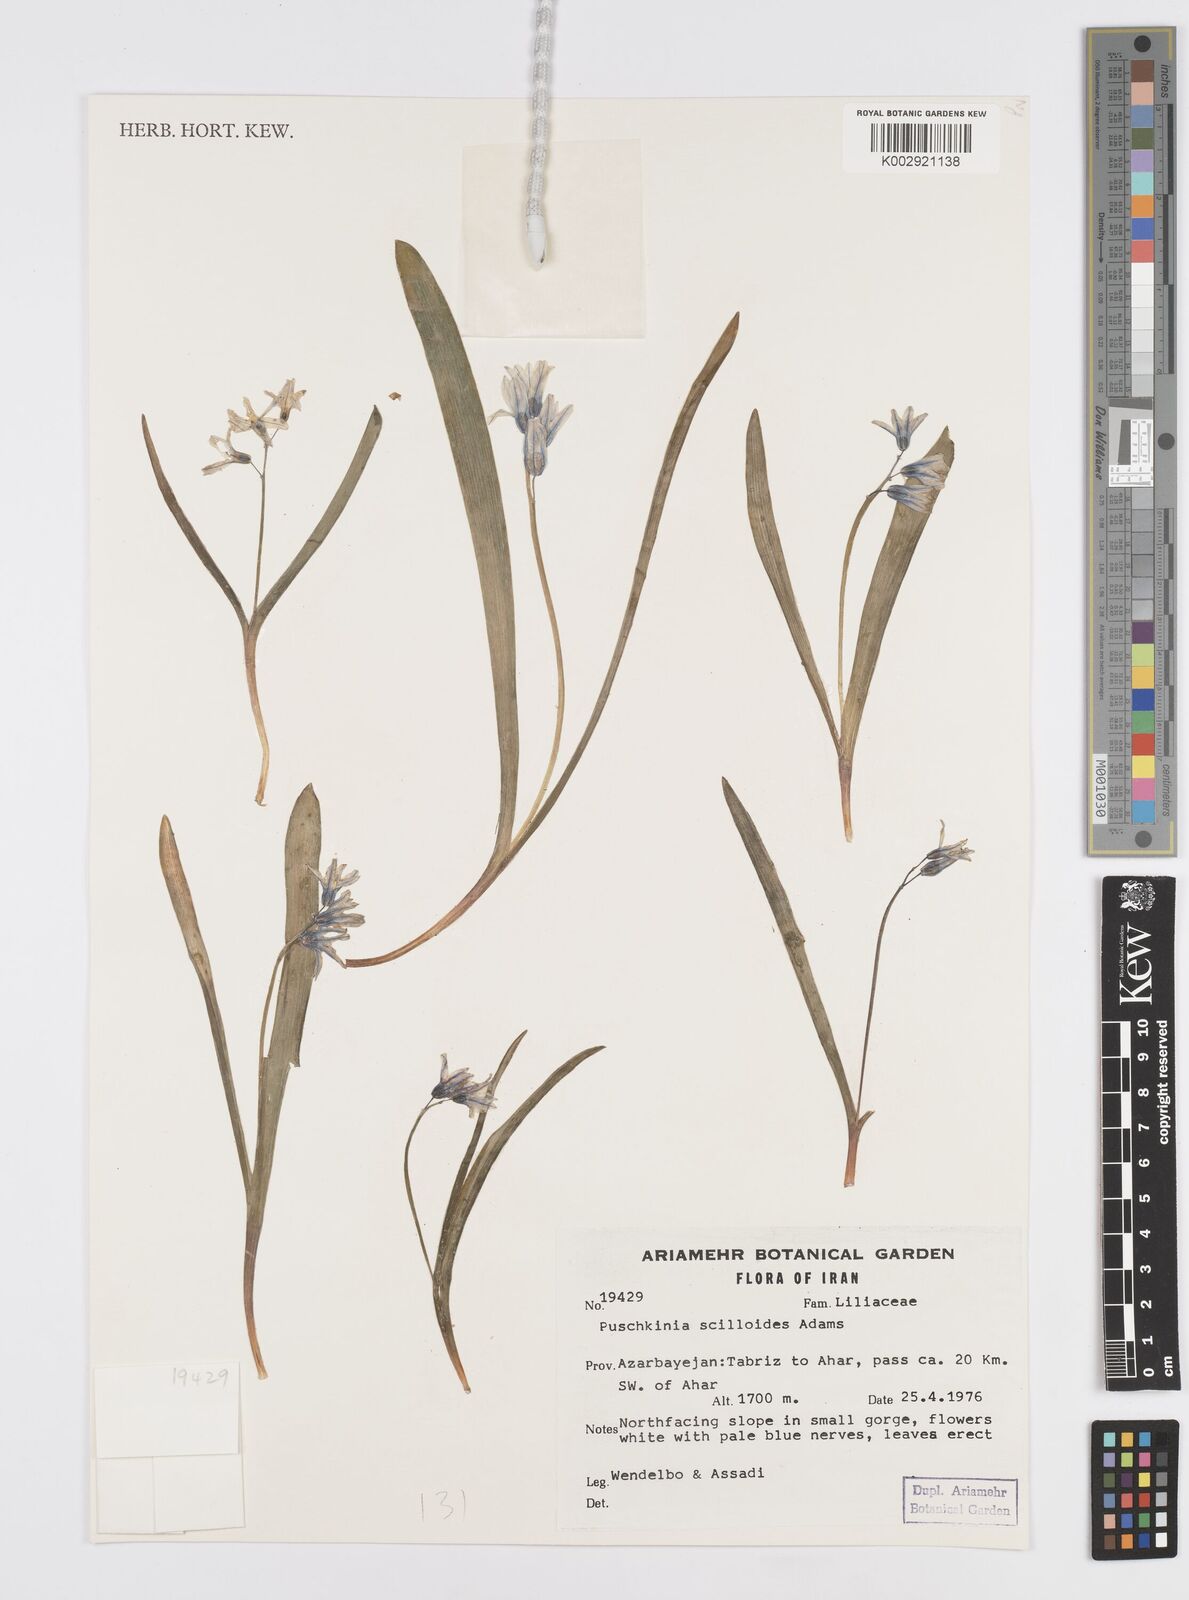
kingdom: Plantae
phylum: Tracheophyta
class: Liliopsida
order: Asparagales
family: Asparagaceae
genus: Puschkinia
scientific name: Puschkinia scilloides
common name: Striped squill
